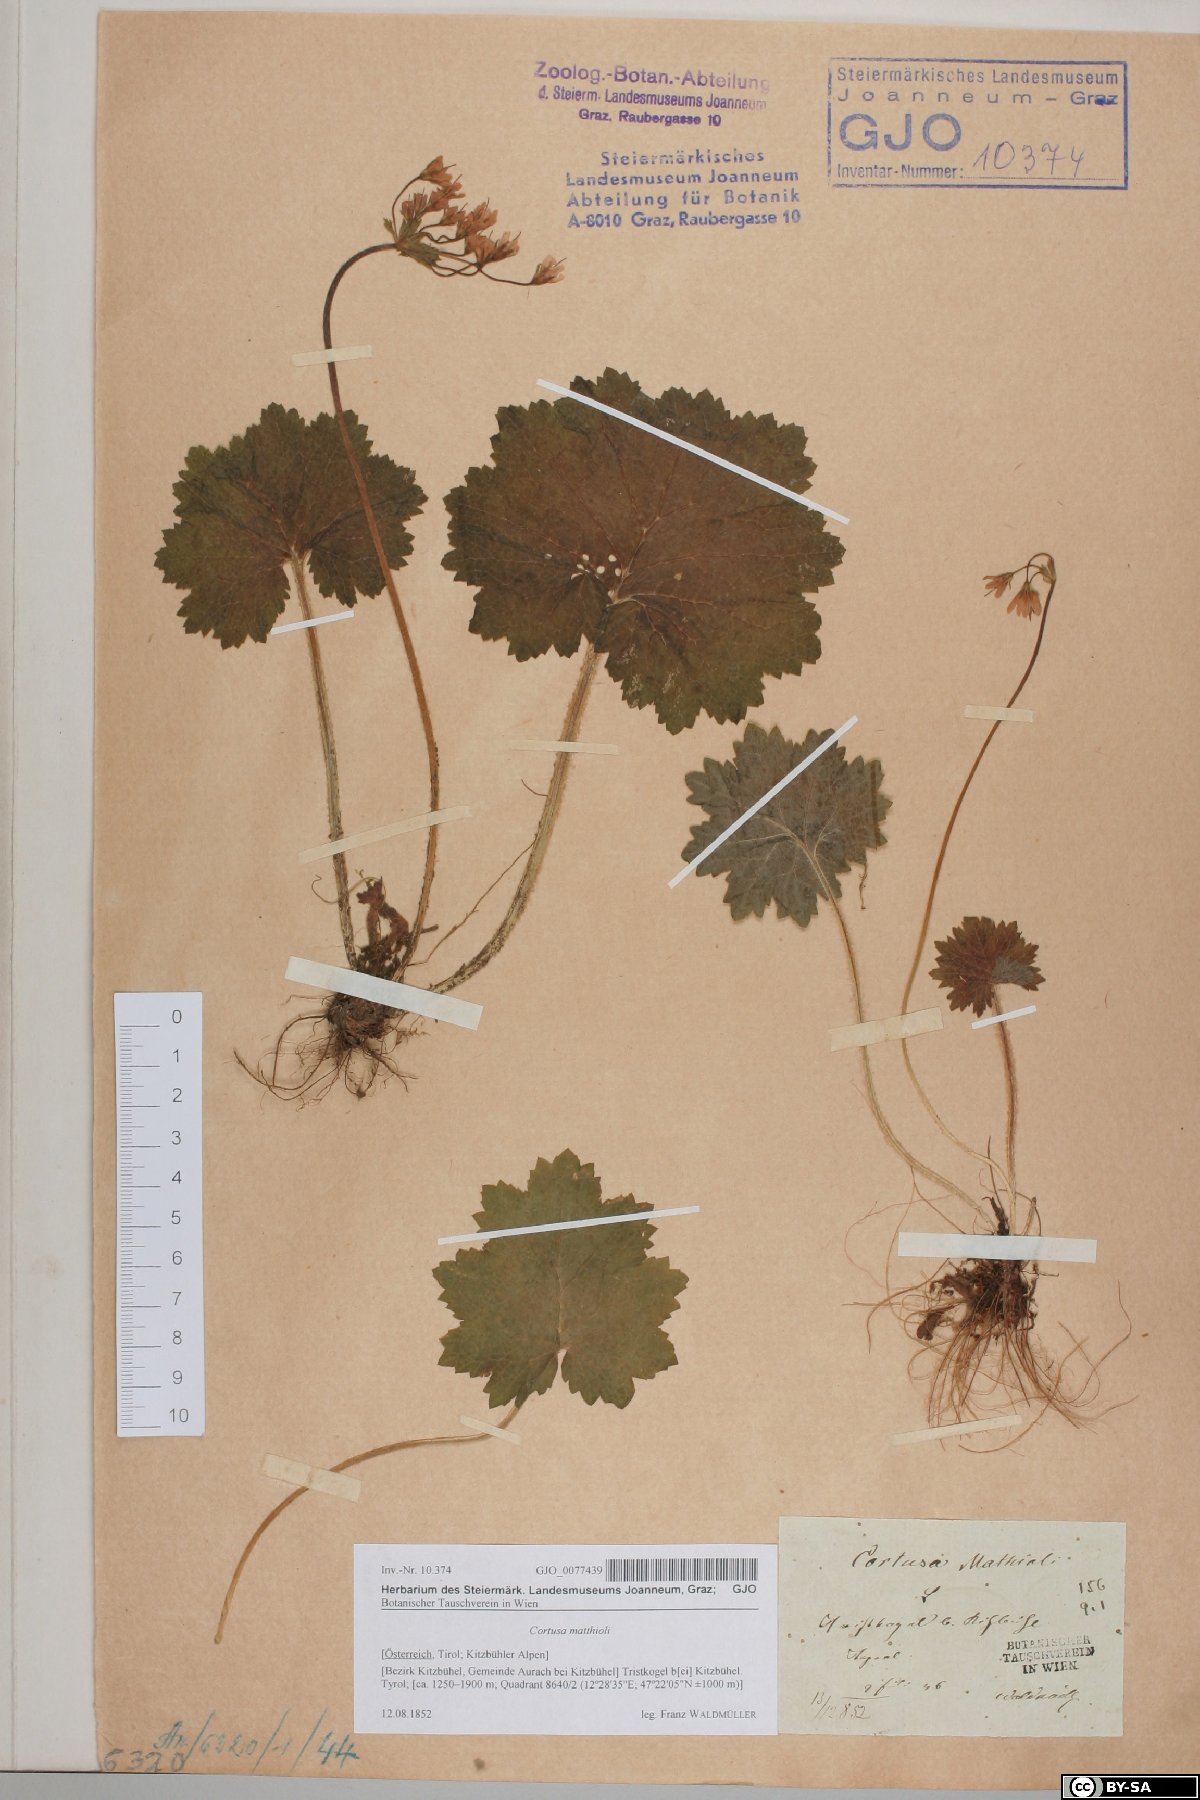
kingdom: Plantae
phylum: Tracheophyta
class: Magnoliopsida
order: Ericales
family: Primulaceae
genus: Primula
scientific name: Primula matthioli
